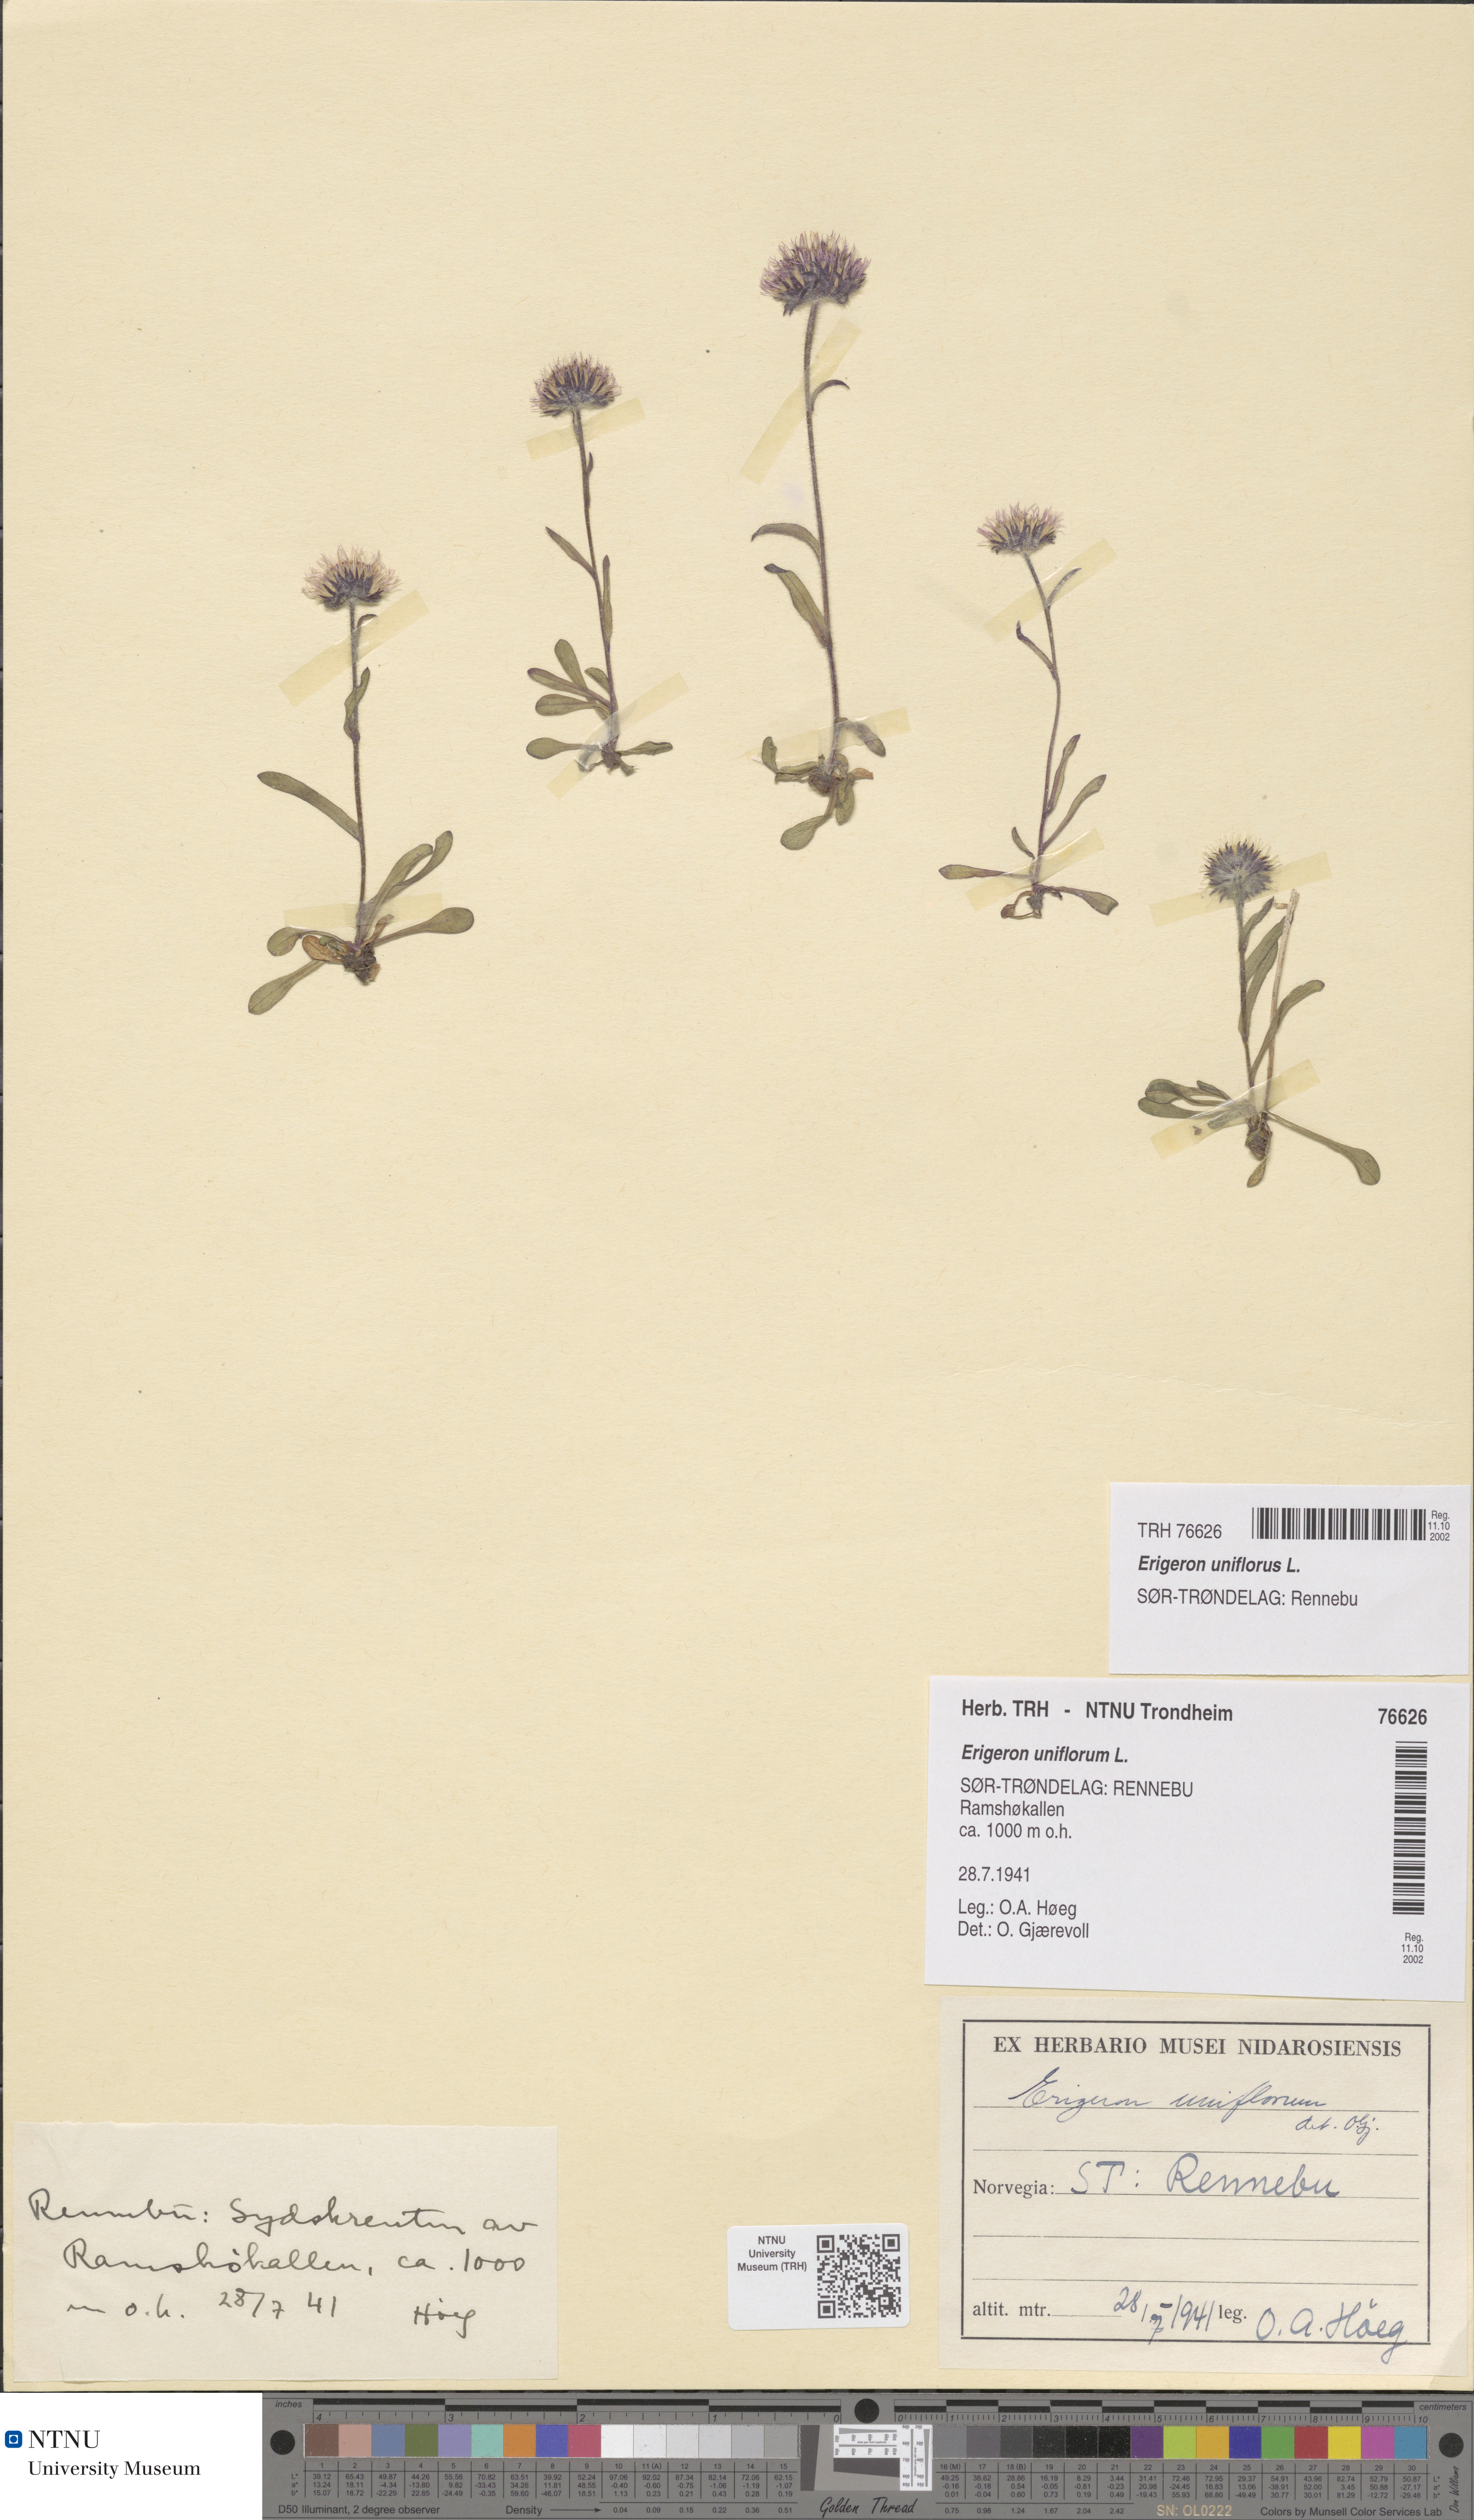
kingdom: Plantae
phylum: Tracheophyta
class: Magnoliopsida
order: Asterales
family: Asteraceae
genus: Erigeron
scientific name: Erigeron uniflorus
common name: Northern daisy
